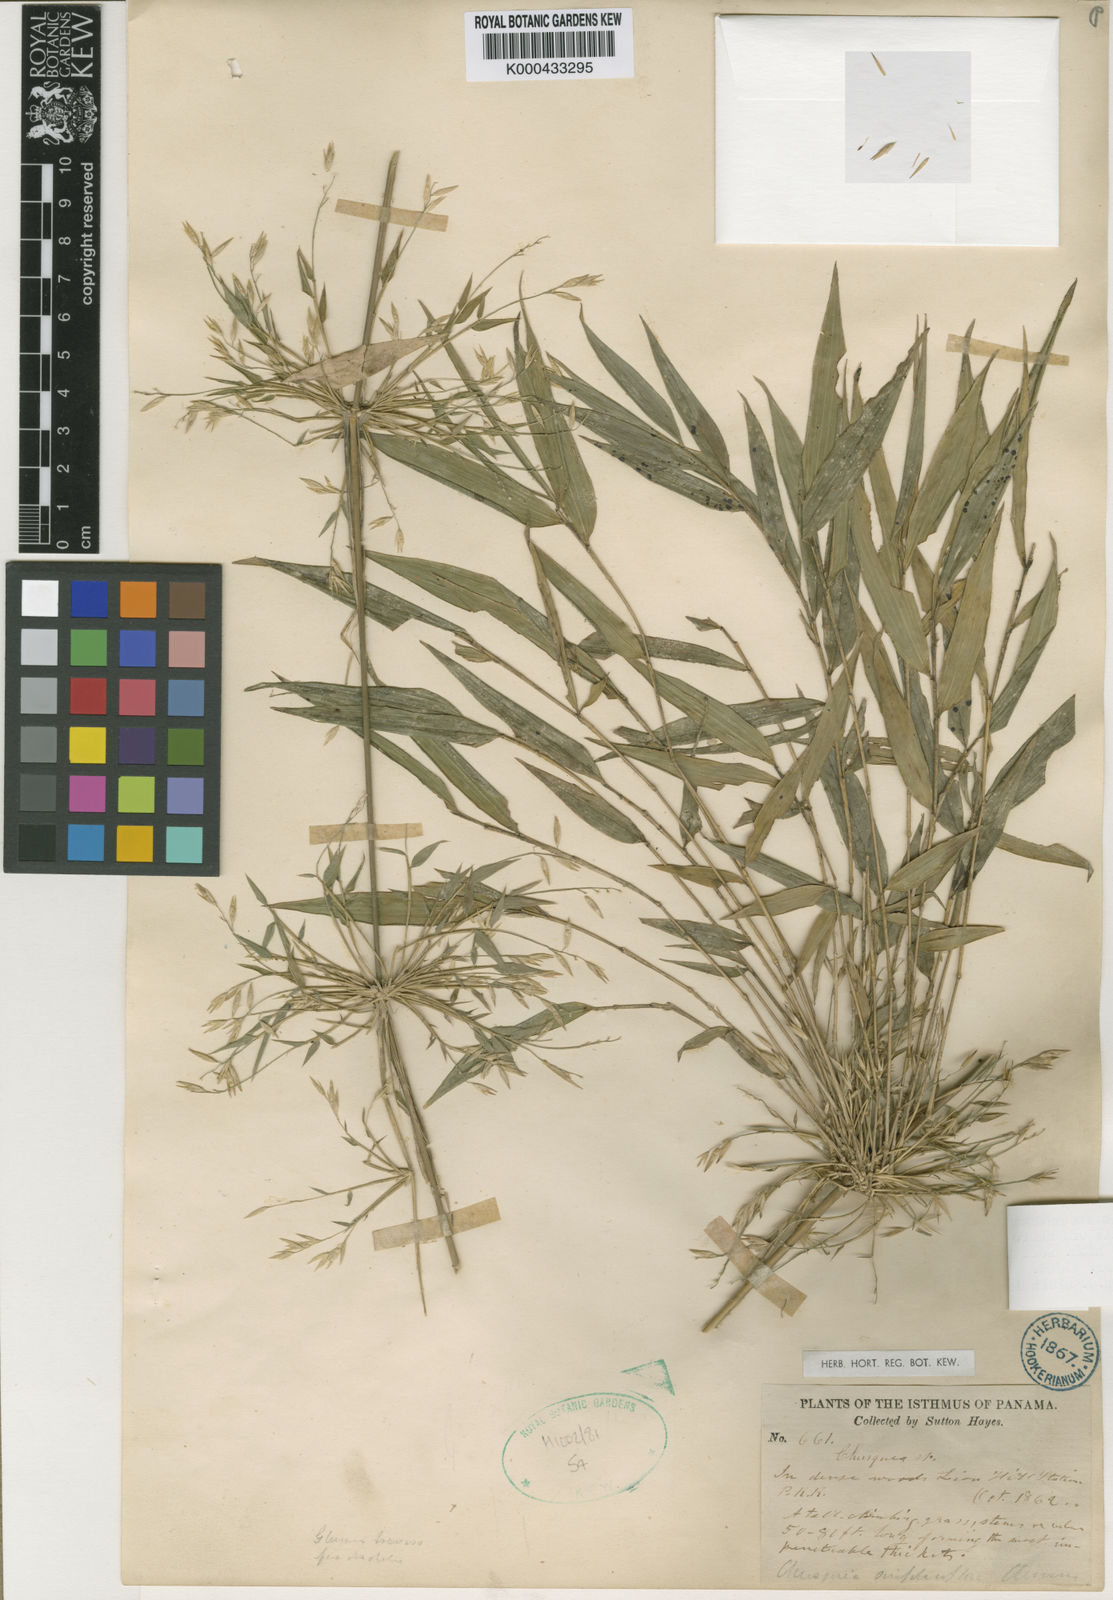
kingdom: Plantae
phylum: Tracheophyta
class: Liliopsida
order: Poales
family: Poaceae
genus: Chusquea
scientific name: Chusquea simpliciflora
